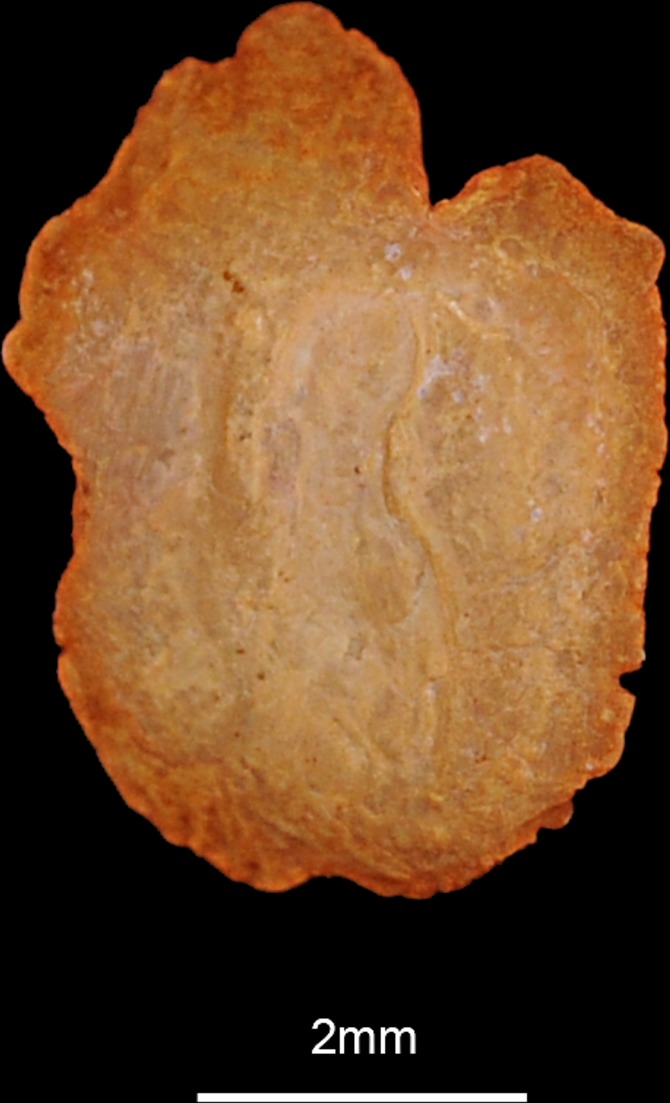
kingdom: Animalia
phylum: Chordata
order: Perciformes
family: Gobiidae
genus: Gobius
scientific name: Gobius niger
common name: Black goby
